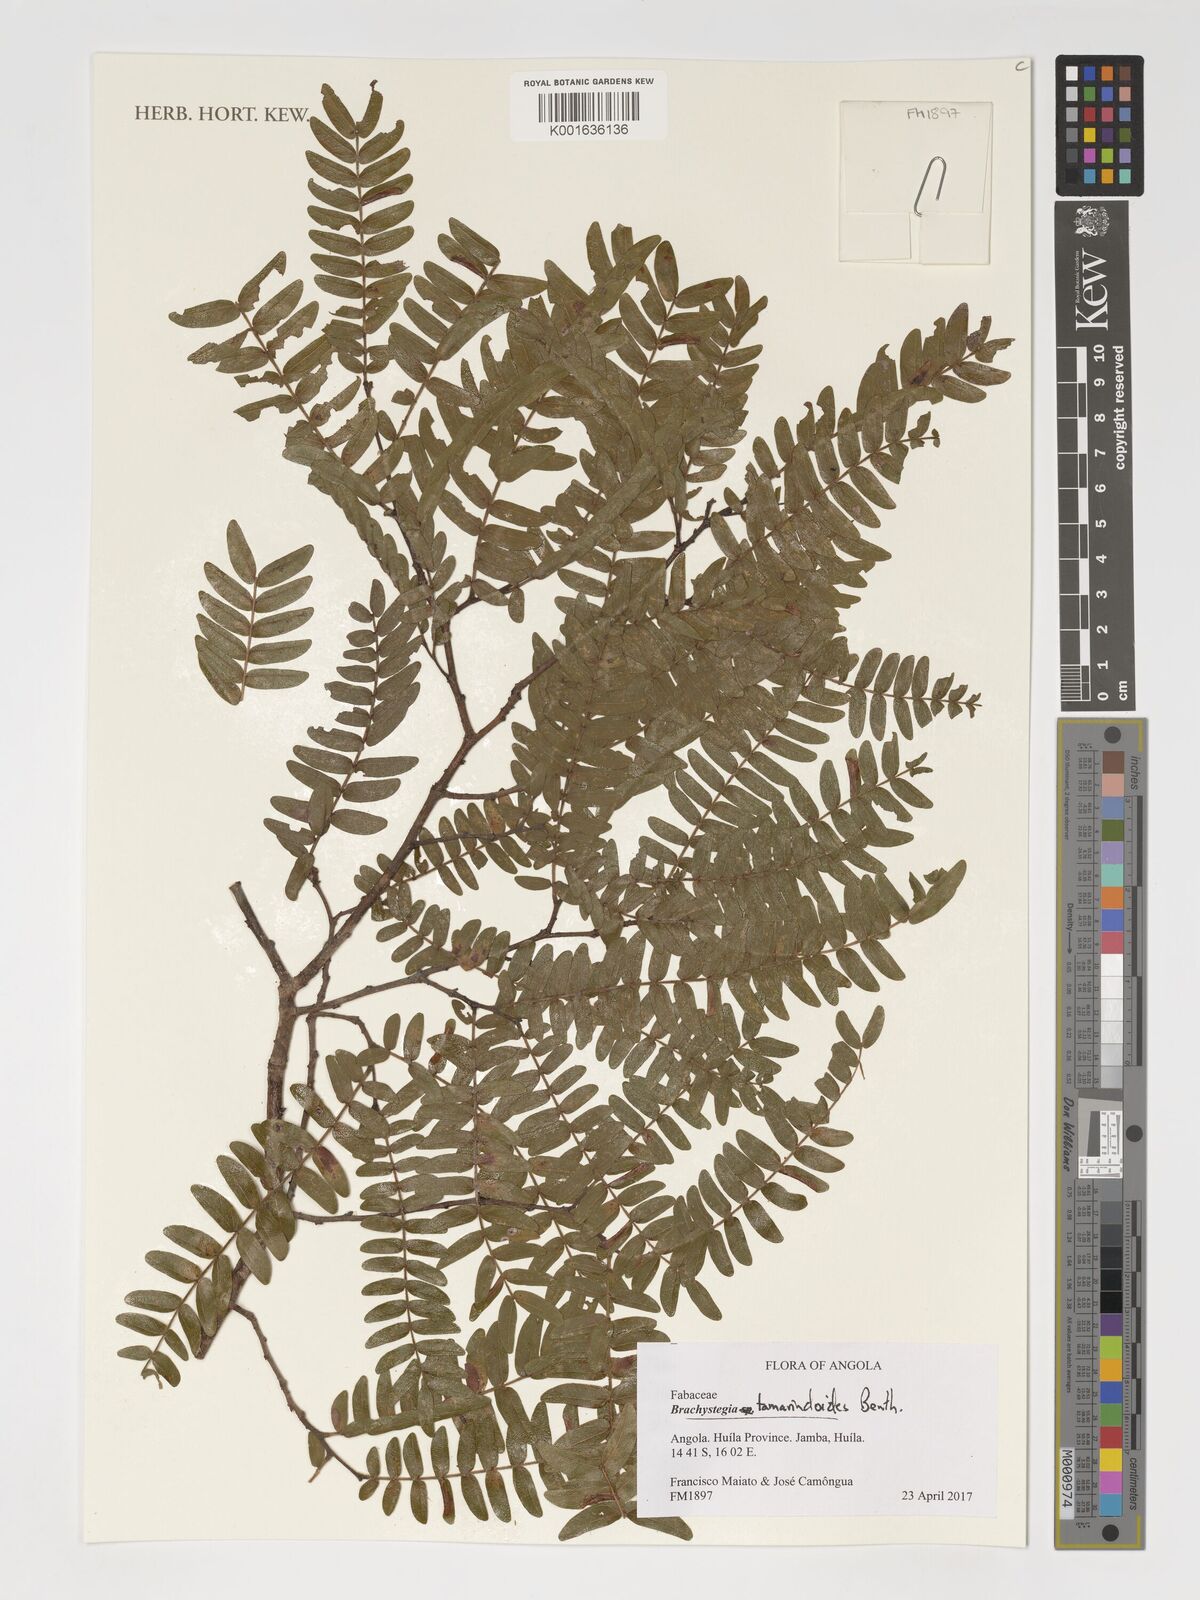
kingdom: Plantae
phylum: Tracheophyta
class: Magnoliopsida
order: Fabales
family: Fabaceae
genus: Brachystegia
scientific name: Brachystegia tamarindoides
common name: Mountain acacia
